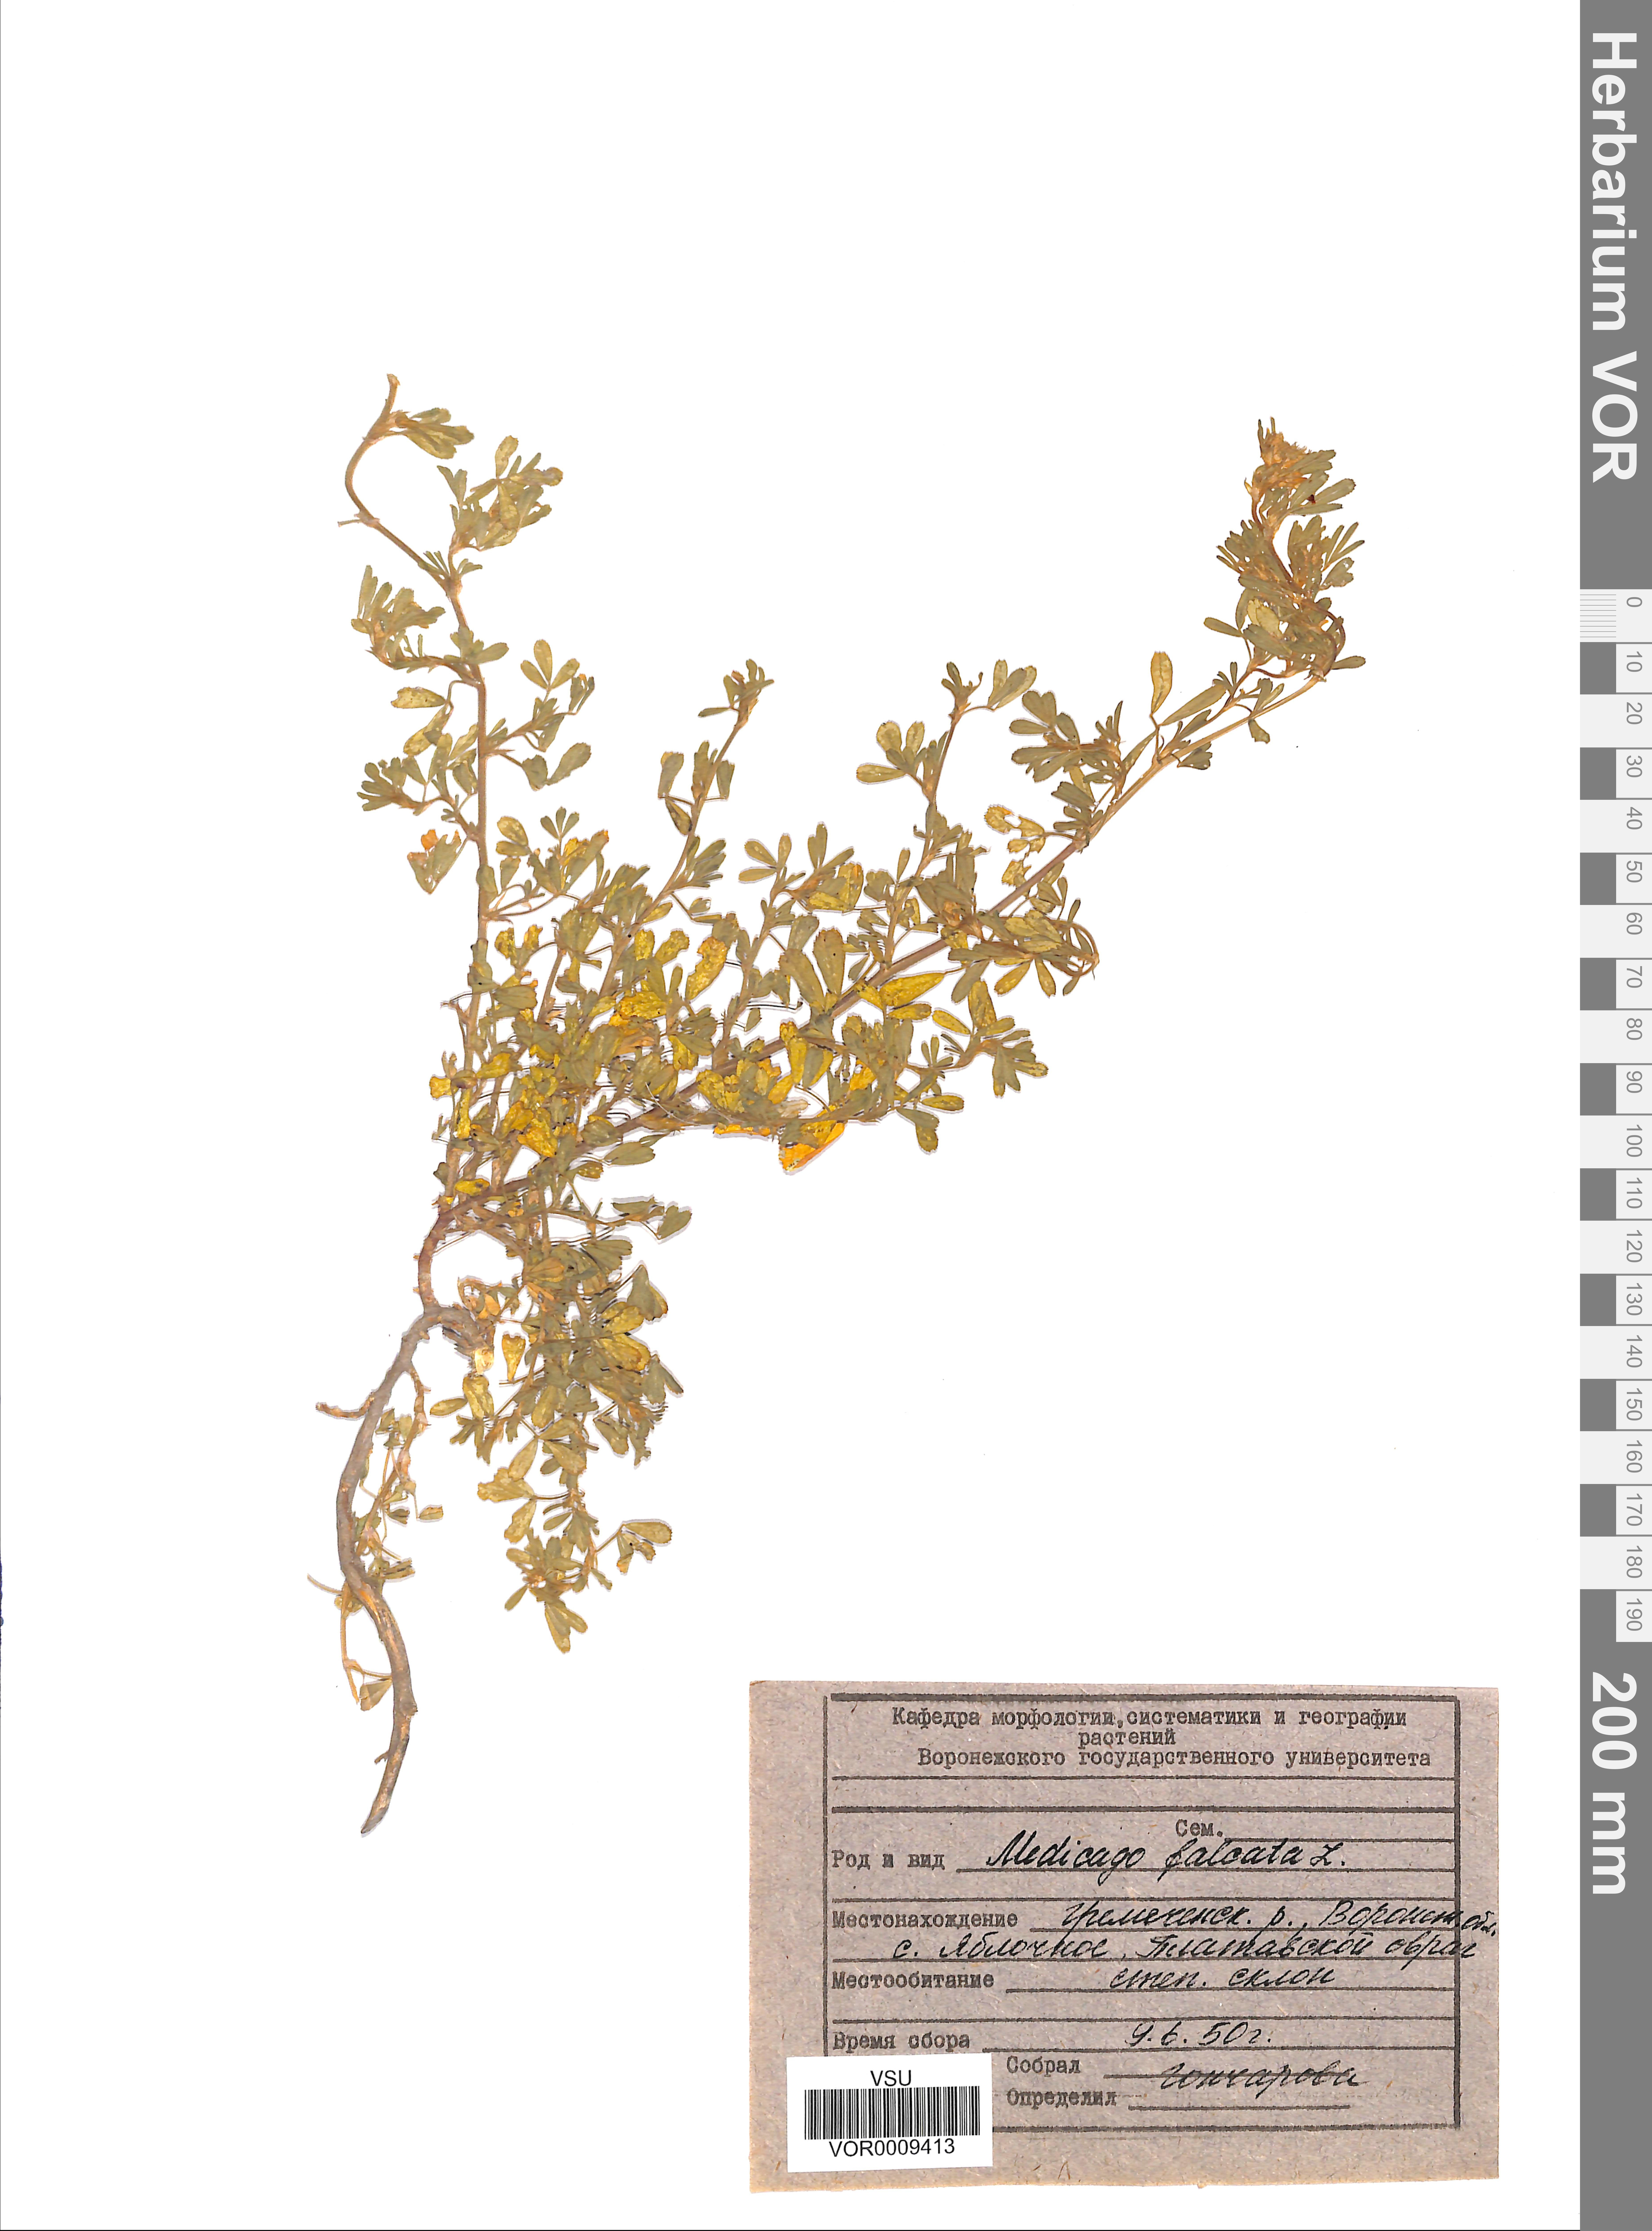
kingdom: Plantae
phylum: Tracheophyta
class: Magnoliopsida
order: Fabales
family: Fabaceae
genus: Medicago
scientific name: Medicago falcata
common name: Sickle medick
